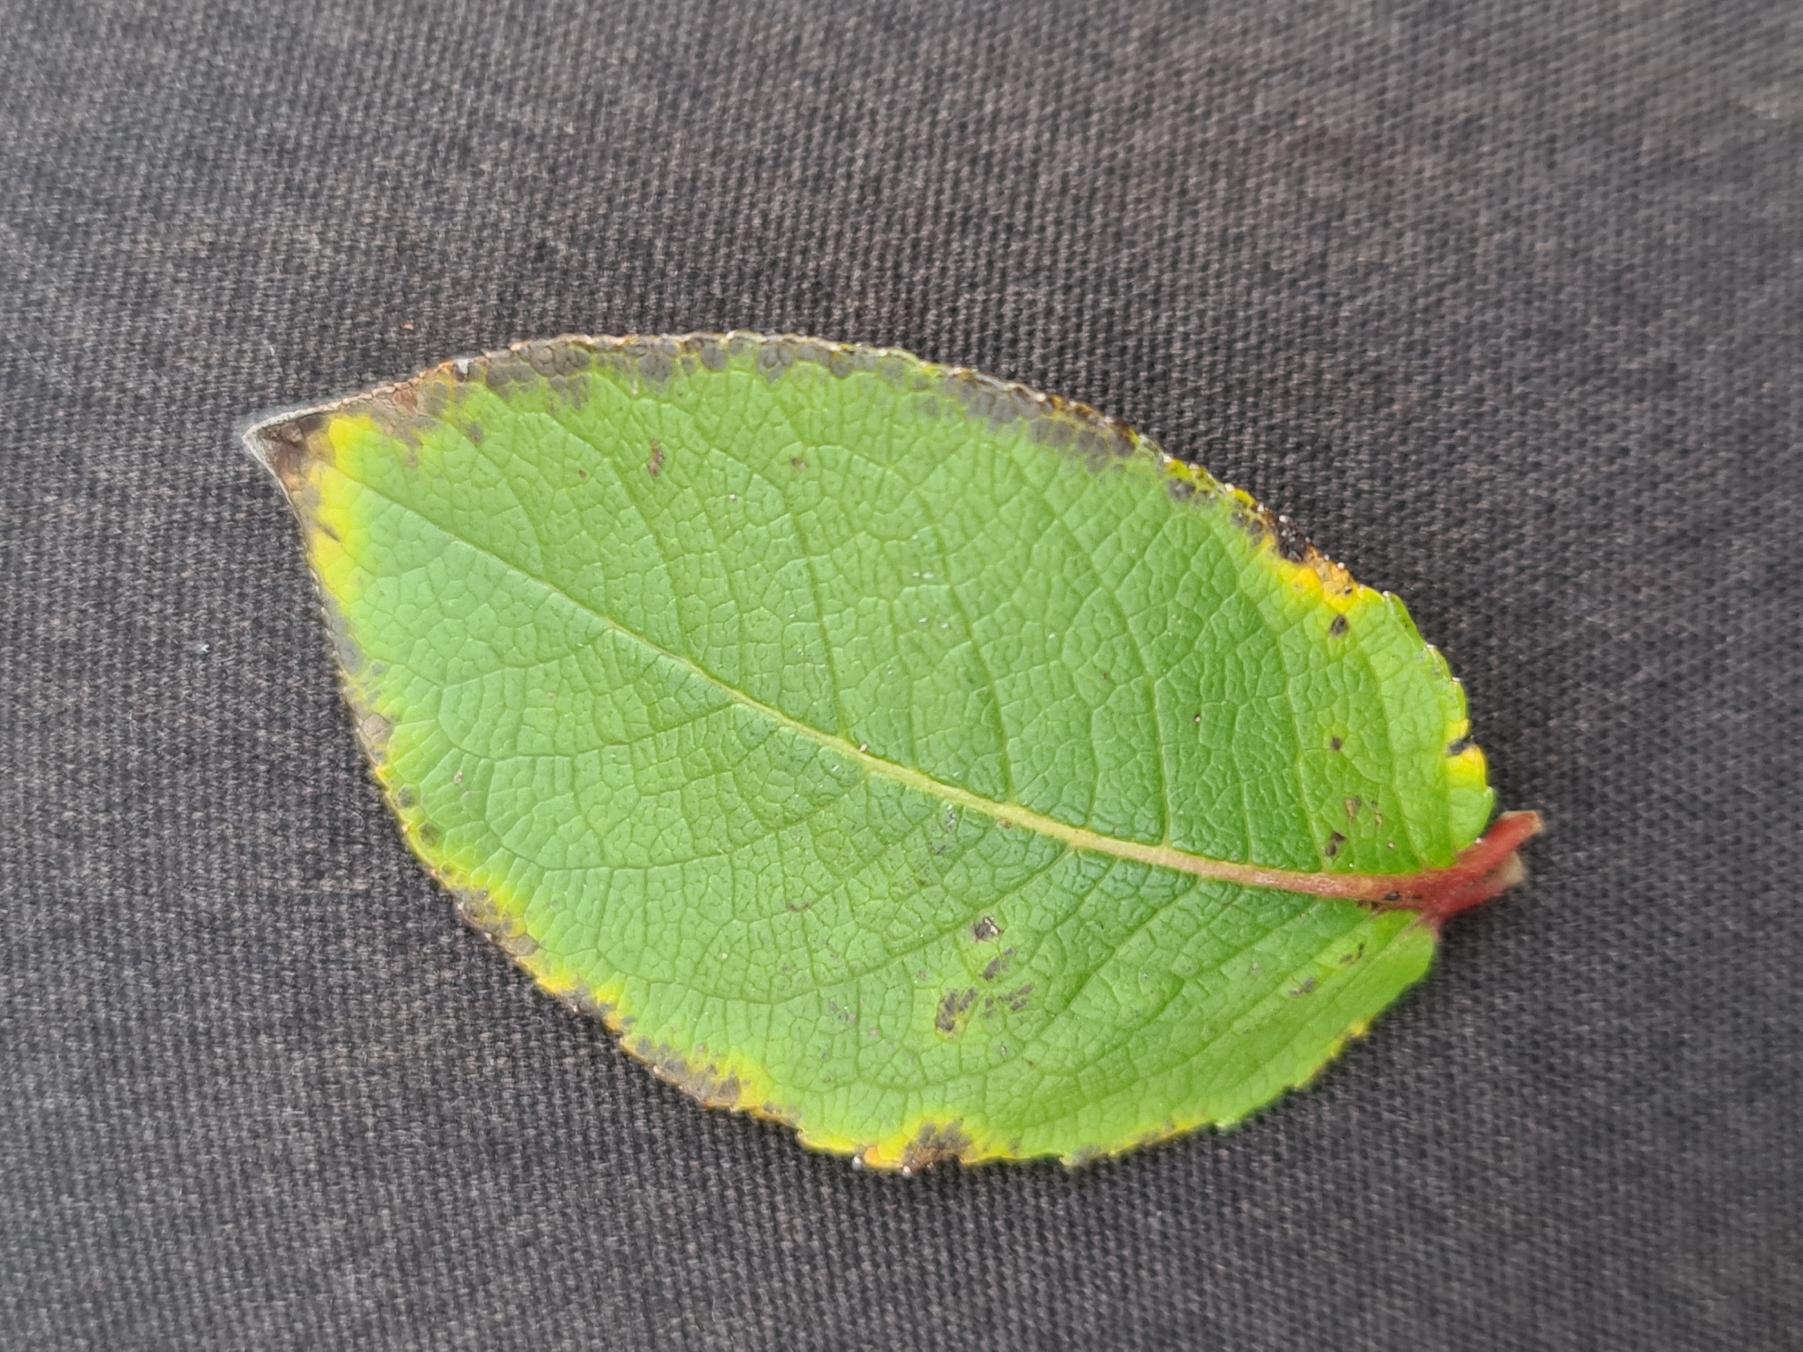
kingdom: Plantae
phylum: Tracheophyta
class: Magnoliopsida
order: Malpighiales
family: Salicaceae
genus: Salix
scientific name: Salix hastata
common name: Spyd-pil
